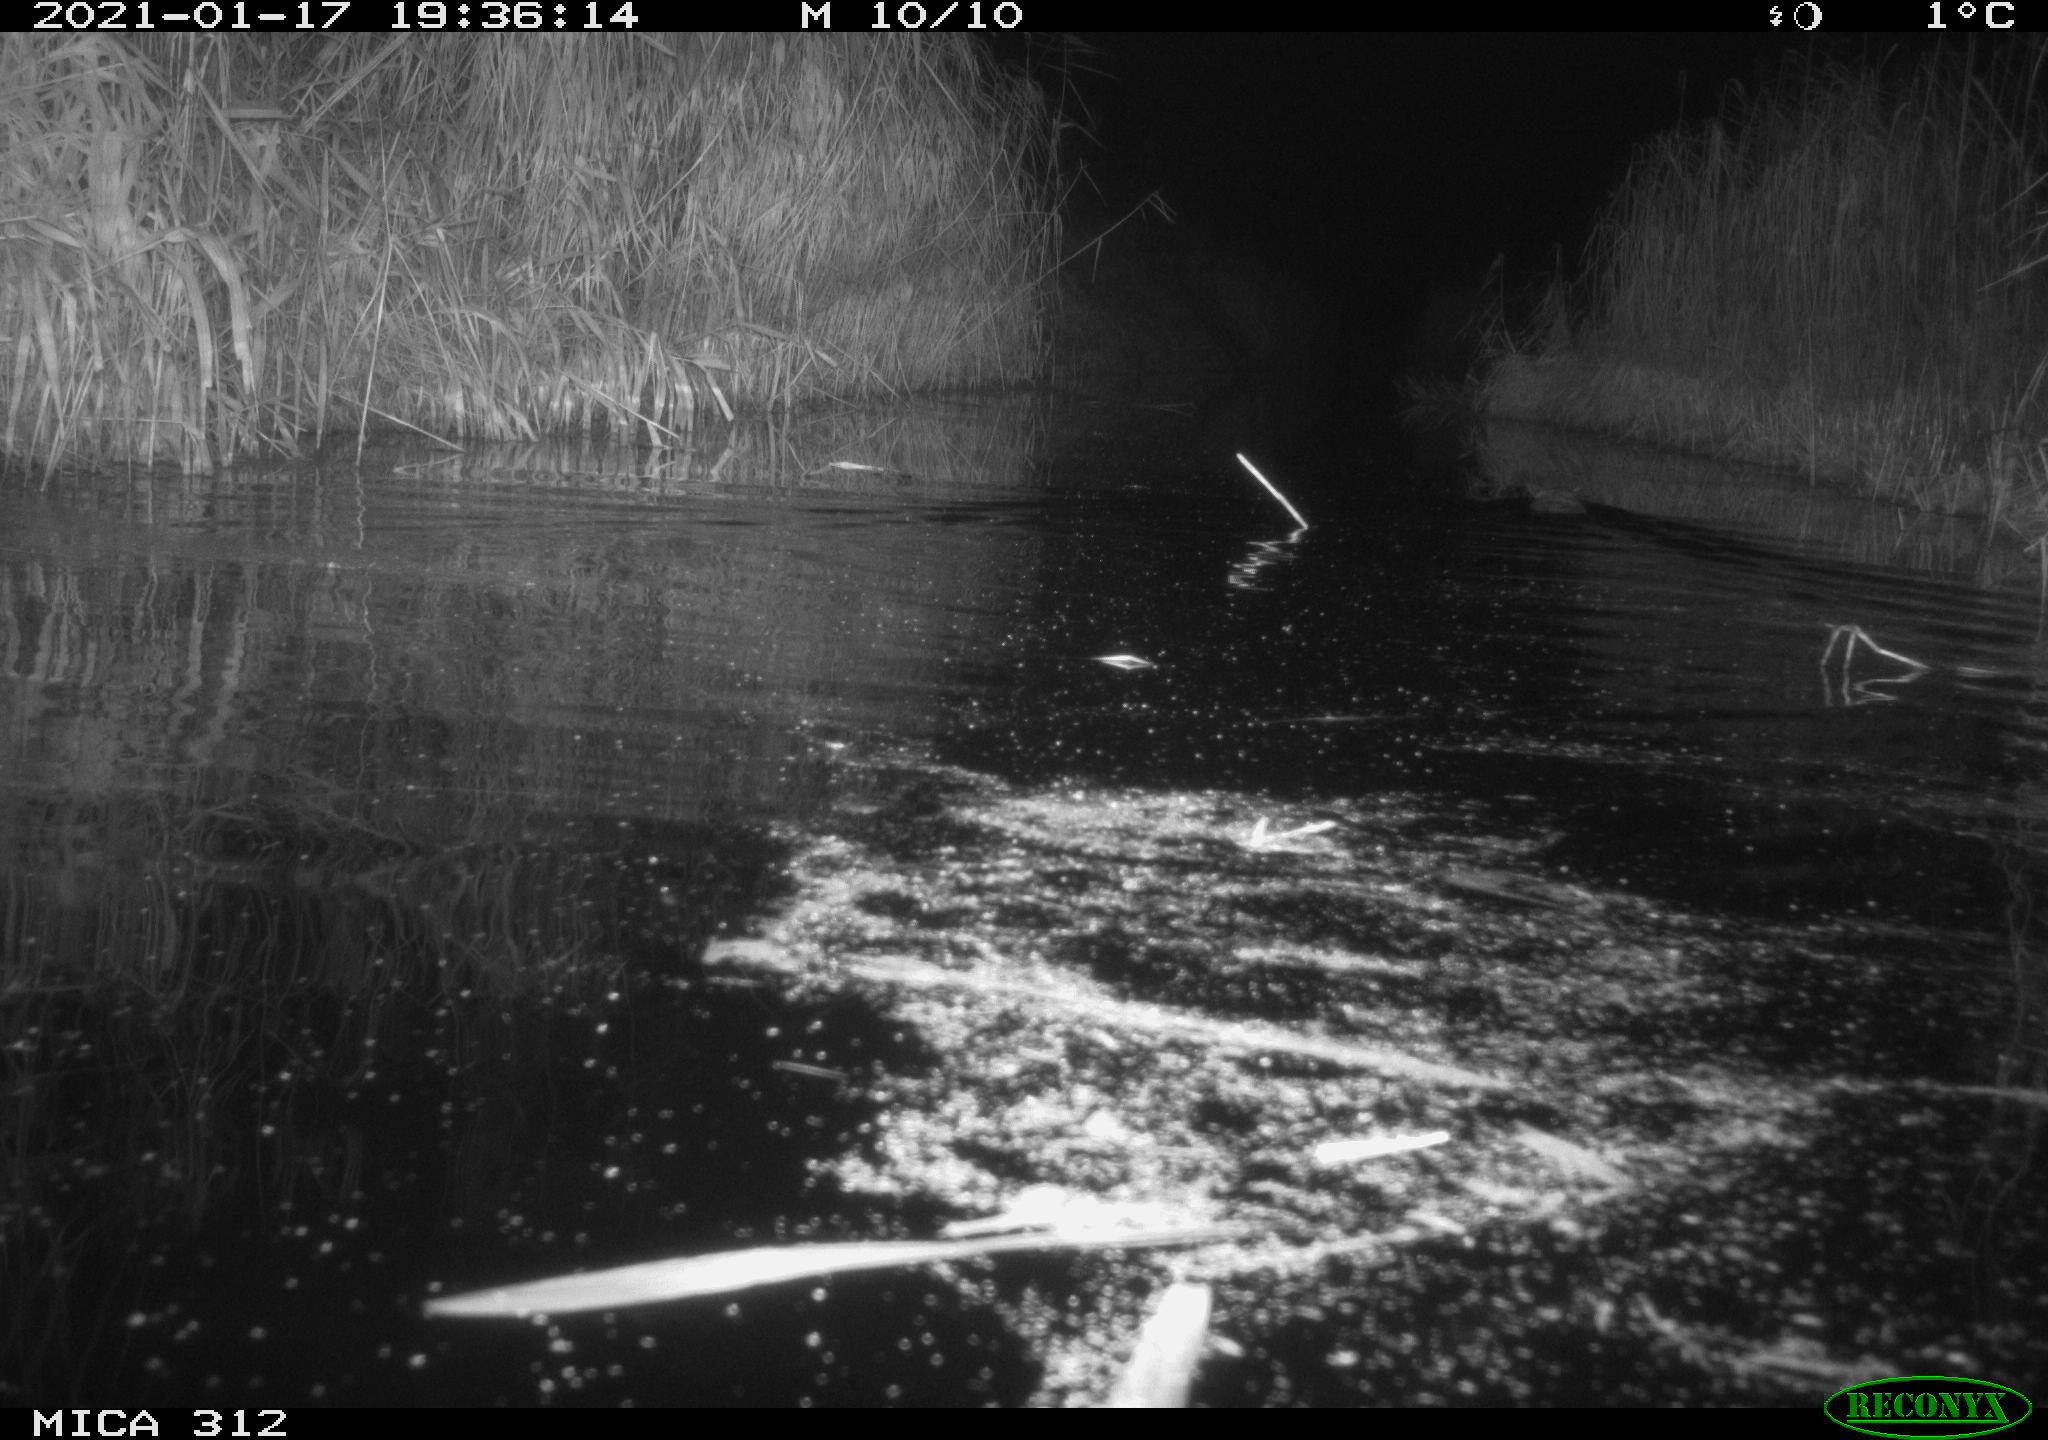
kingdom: Animalia
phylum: Chordata
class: Mammalia
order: Rodentia
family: Cricetidae
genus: Ondatra
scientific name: Ondatra zibethicus
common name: Muskrat
